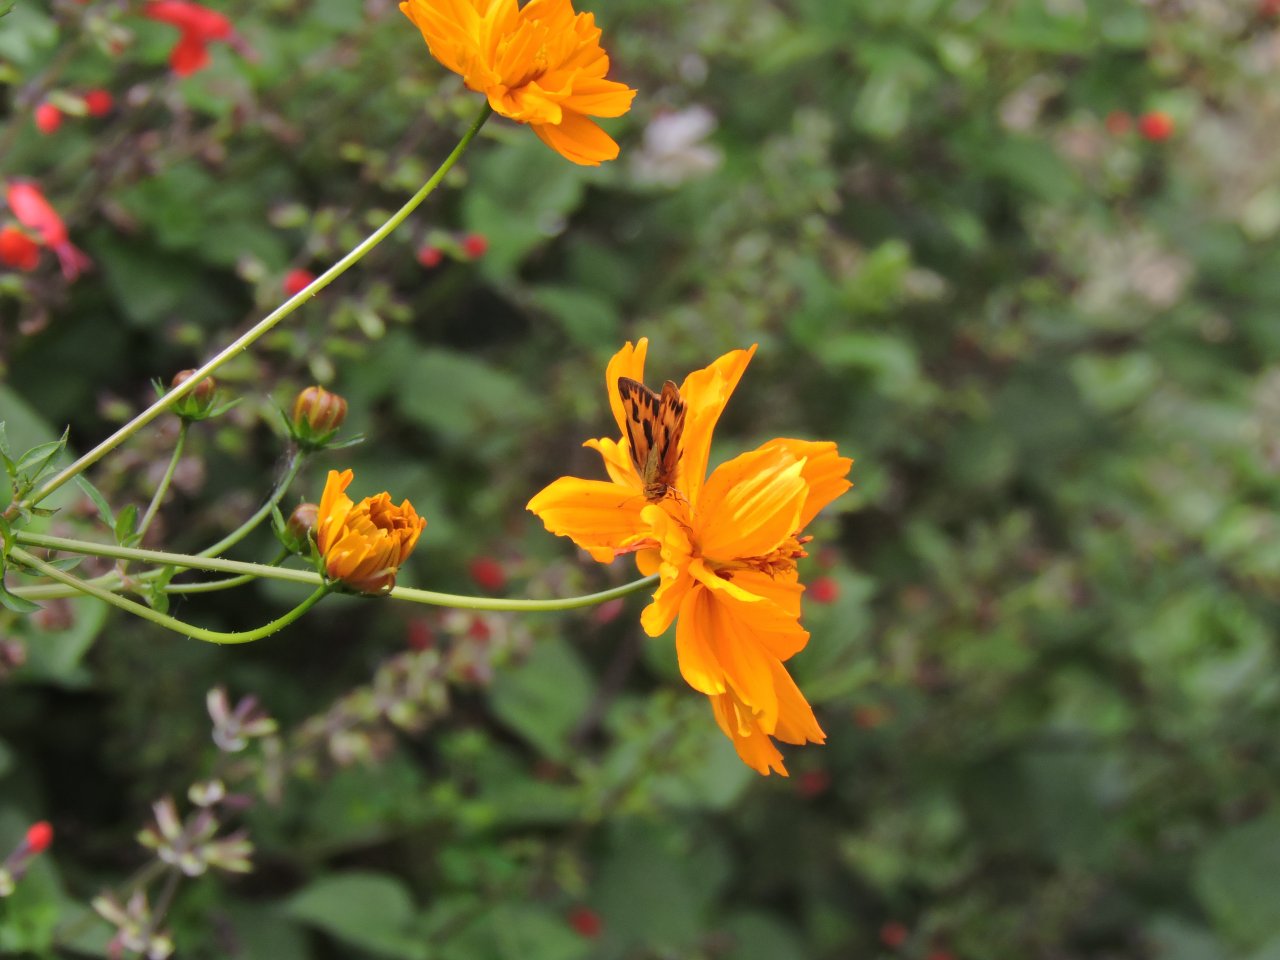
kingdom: Animalia
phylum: Arthropoda
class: Insecta
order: Lepidoptera
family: Hesperiidae
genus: Hylephila
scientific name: Hylephila phyleus
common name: Fiery Skipper
